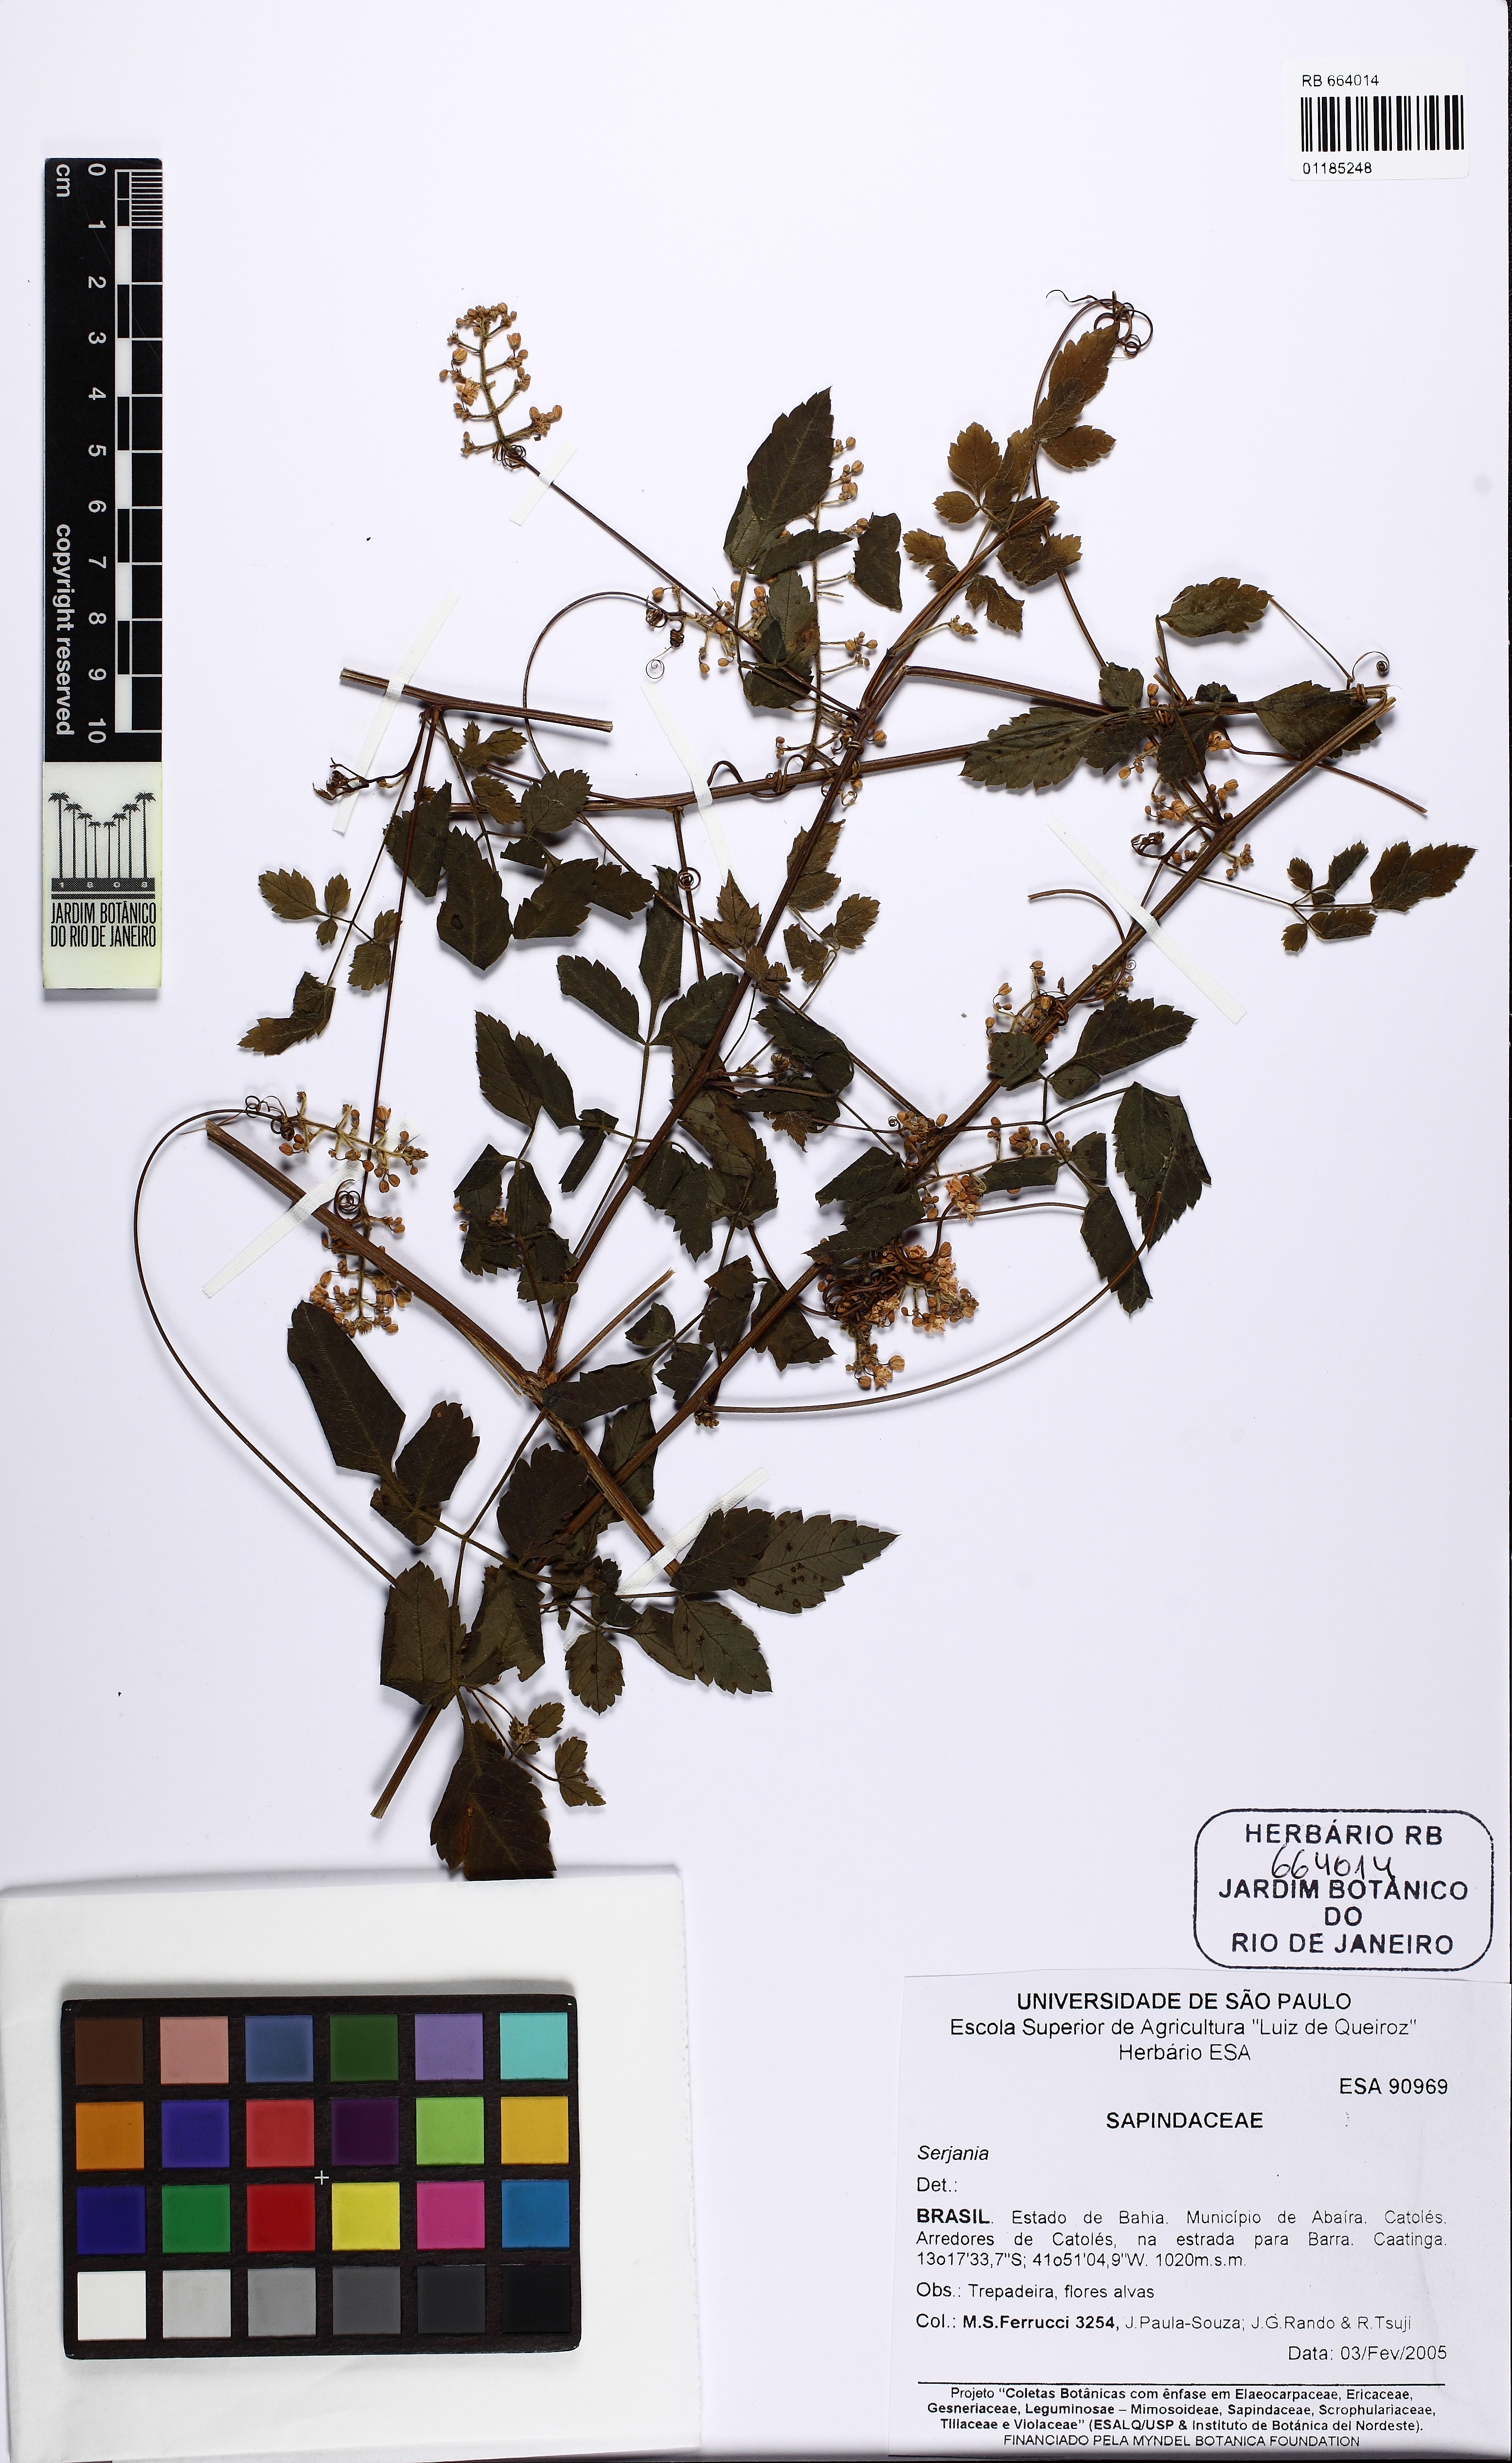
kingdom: Plantae
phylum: Tracheophyta
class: Magnoliopsida
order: Sapindales
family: Sapindaceae
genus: Serjania
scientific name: Serjania
